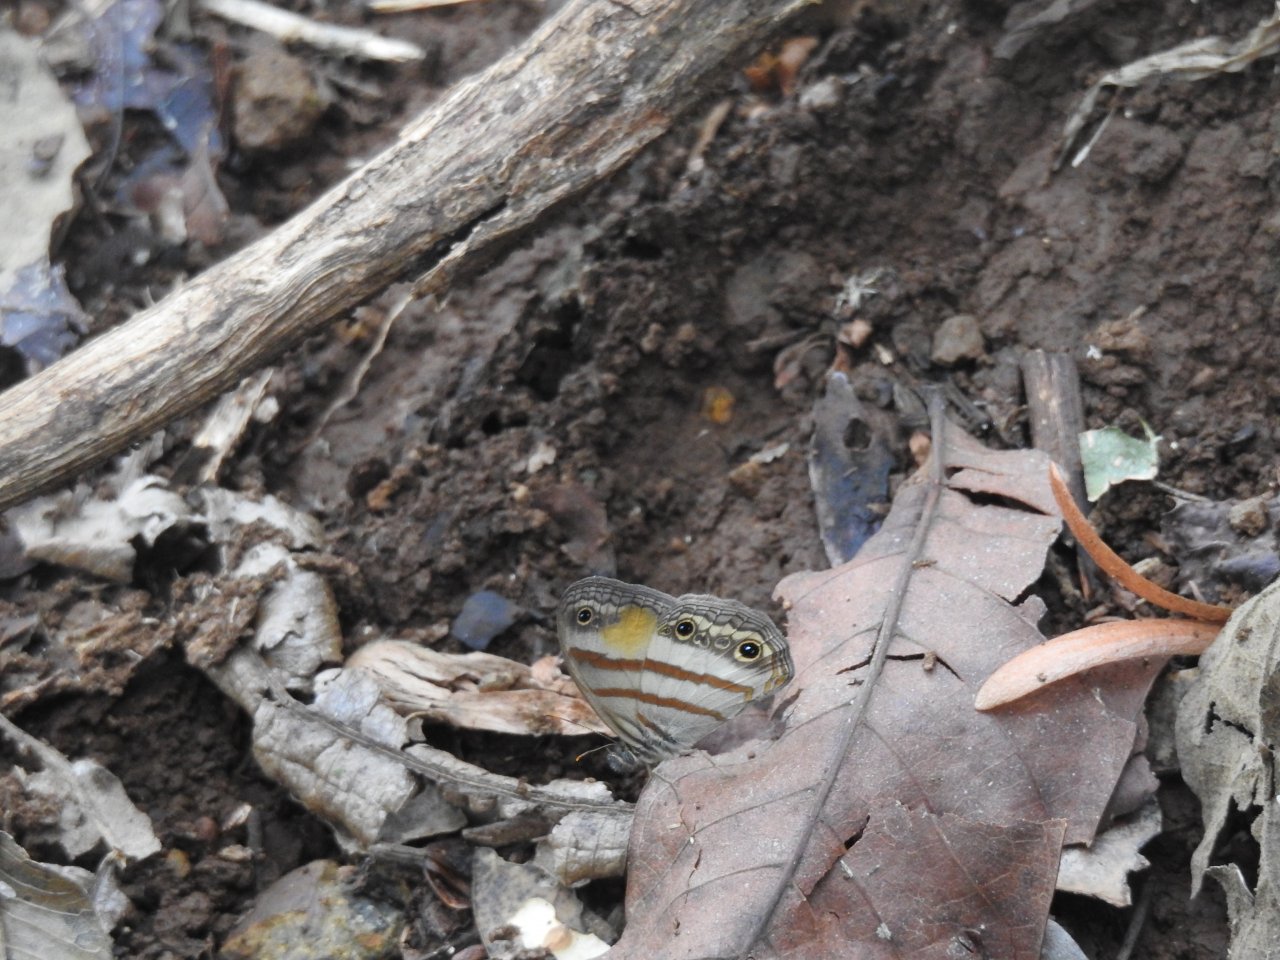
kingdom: Animalia
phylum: Arthropoda
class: Insecta
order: Lepidoptera
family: Nymphalidae
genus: Euptychia
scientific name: Euptychia Cissia pseudoconfusa
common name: Gold-stained Satyr
